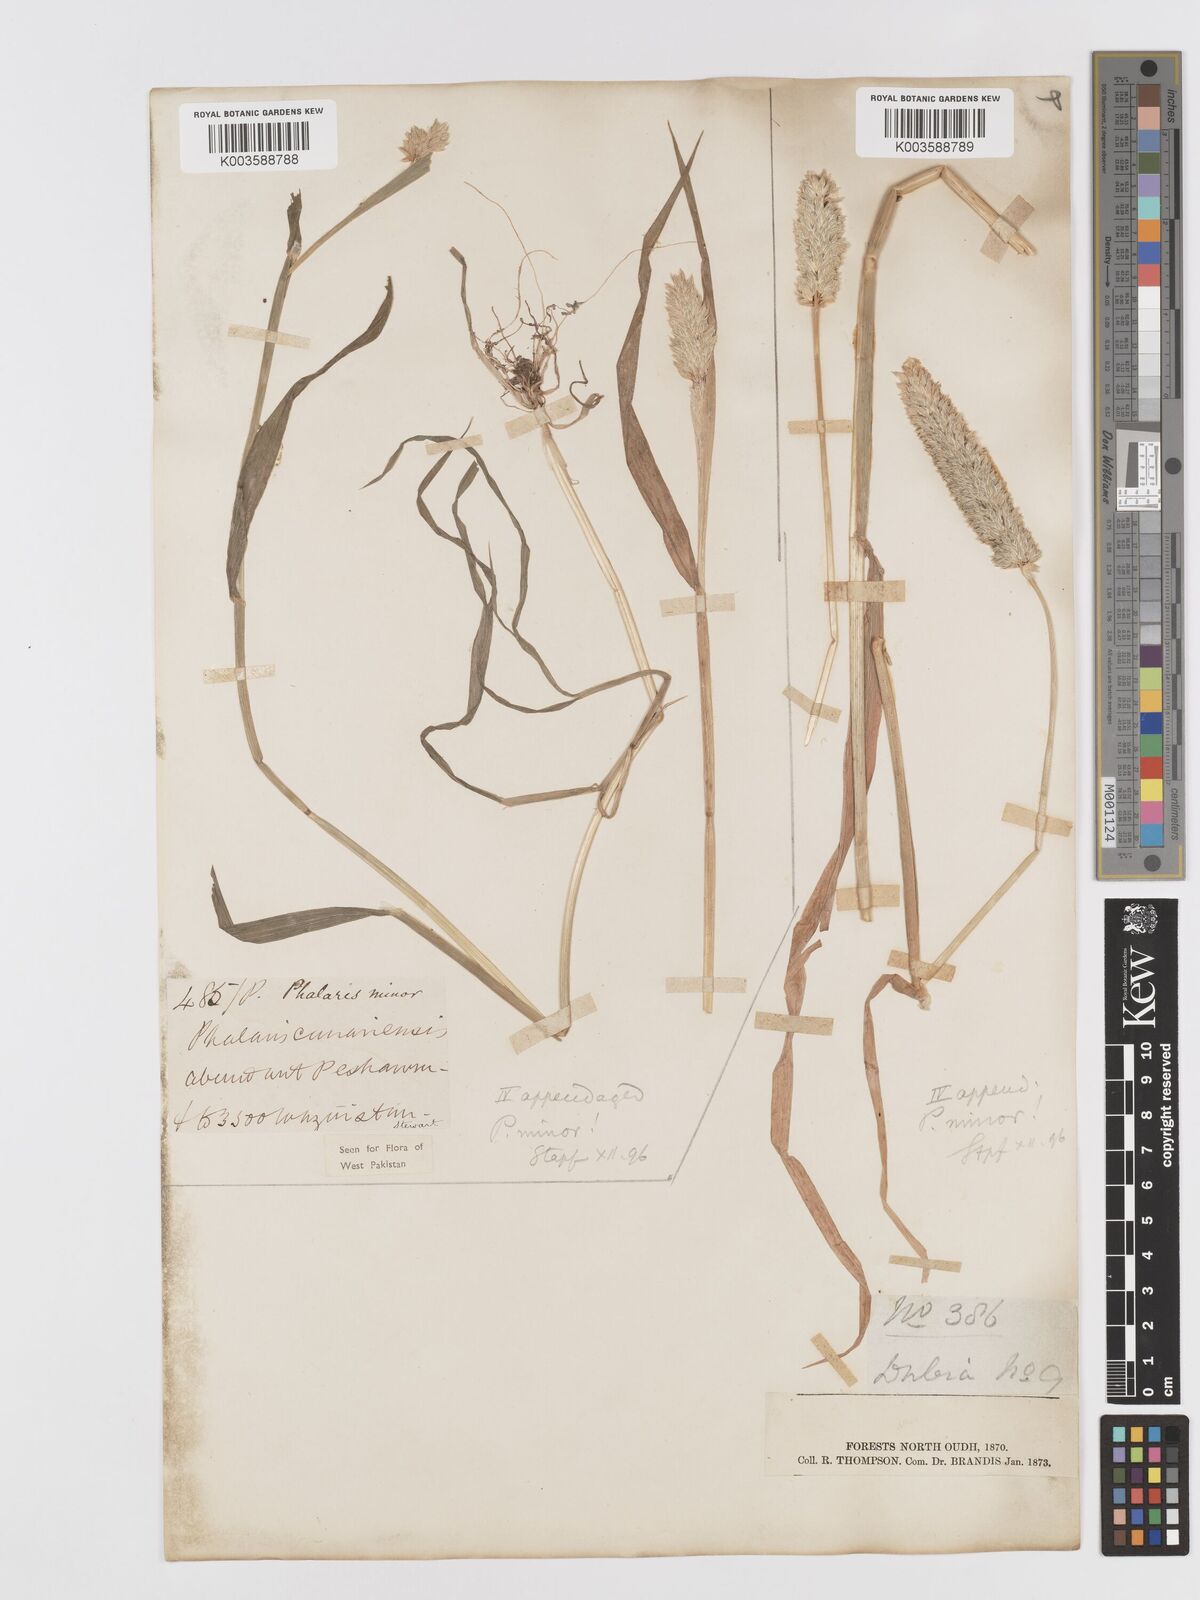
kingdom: Plantae
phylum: Tracheophyta
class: Liliopsida
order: Poales
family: Poaceae
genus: Phalaris
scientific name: Phalaris minor
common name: Littleseed canarygrass
